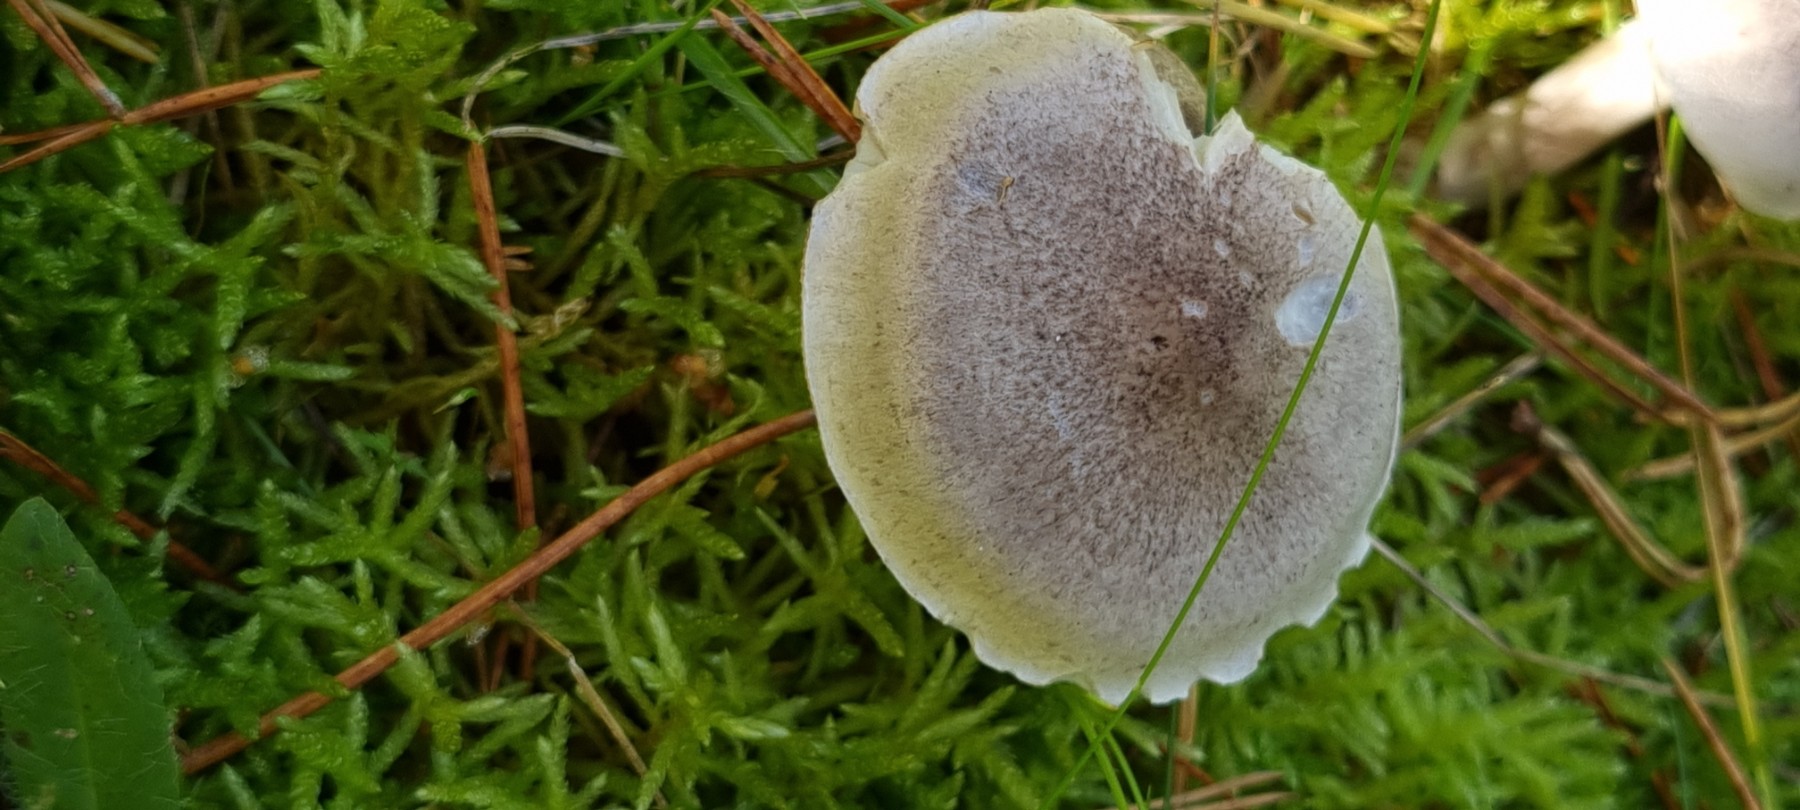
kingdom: Fungi
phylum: Basidiomycota
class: Agaricomycetes
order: Agaricales
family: Tricholomataceae
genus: Tricholoma
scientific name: Tricholoma
